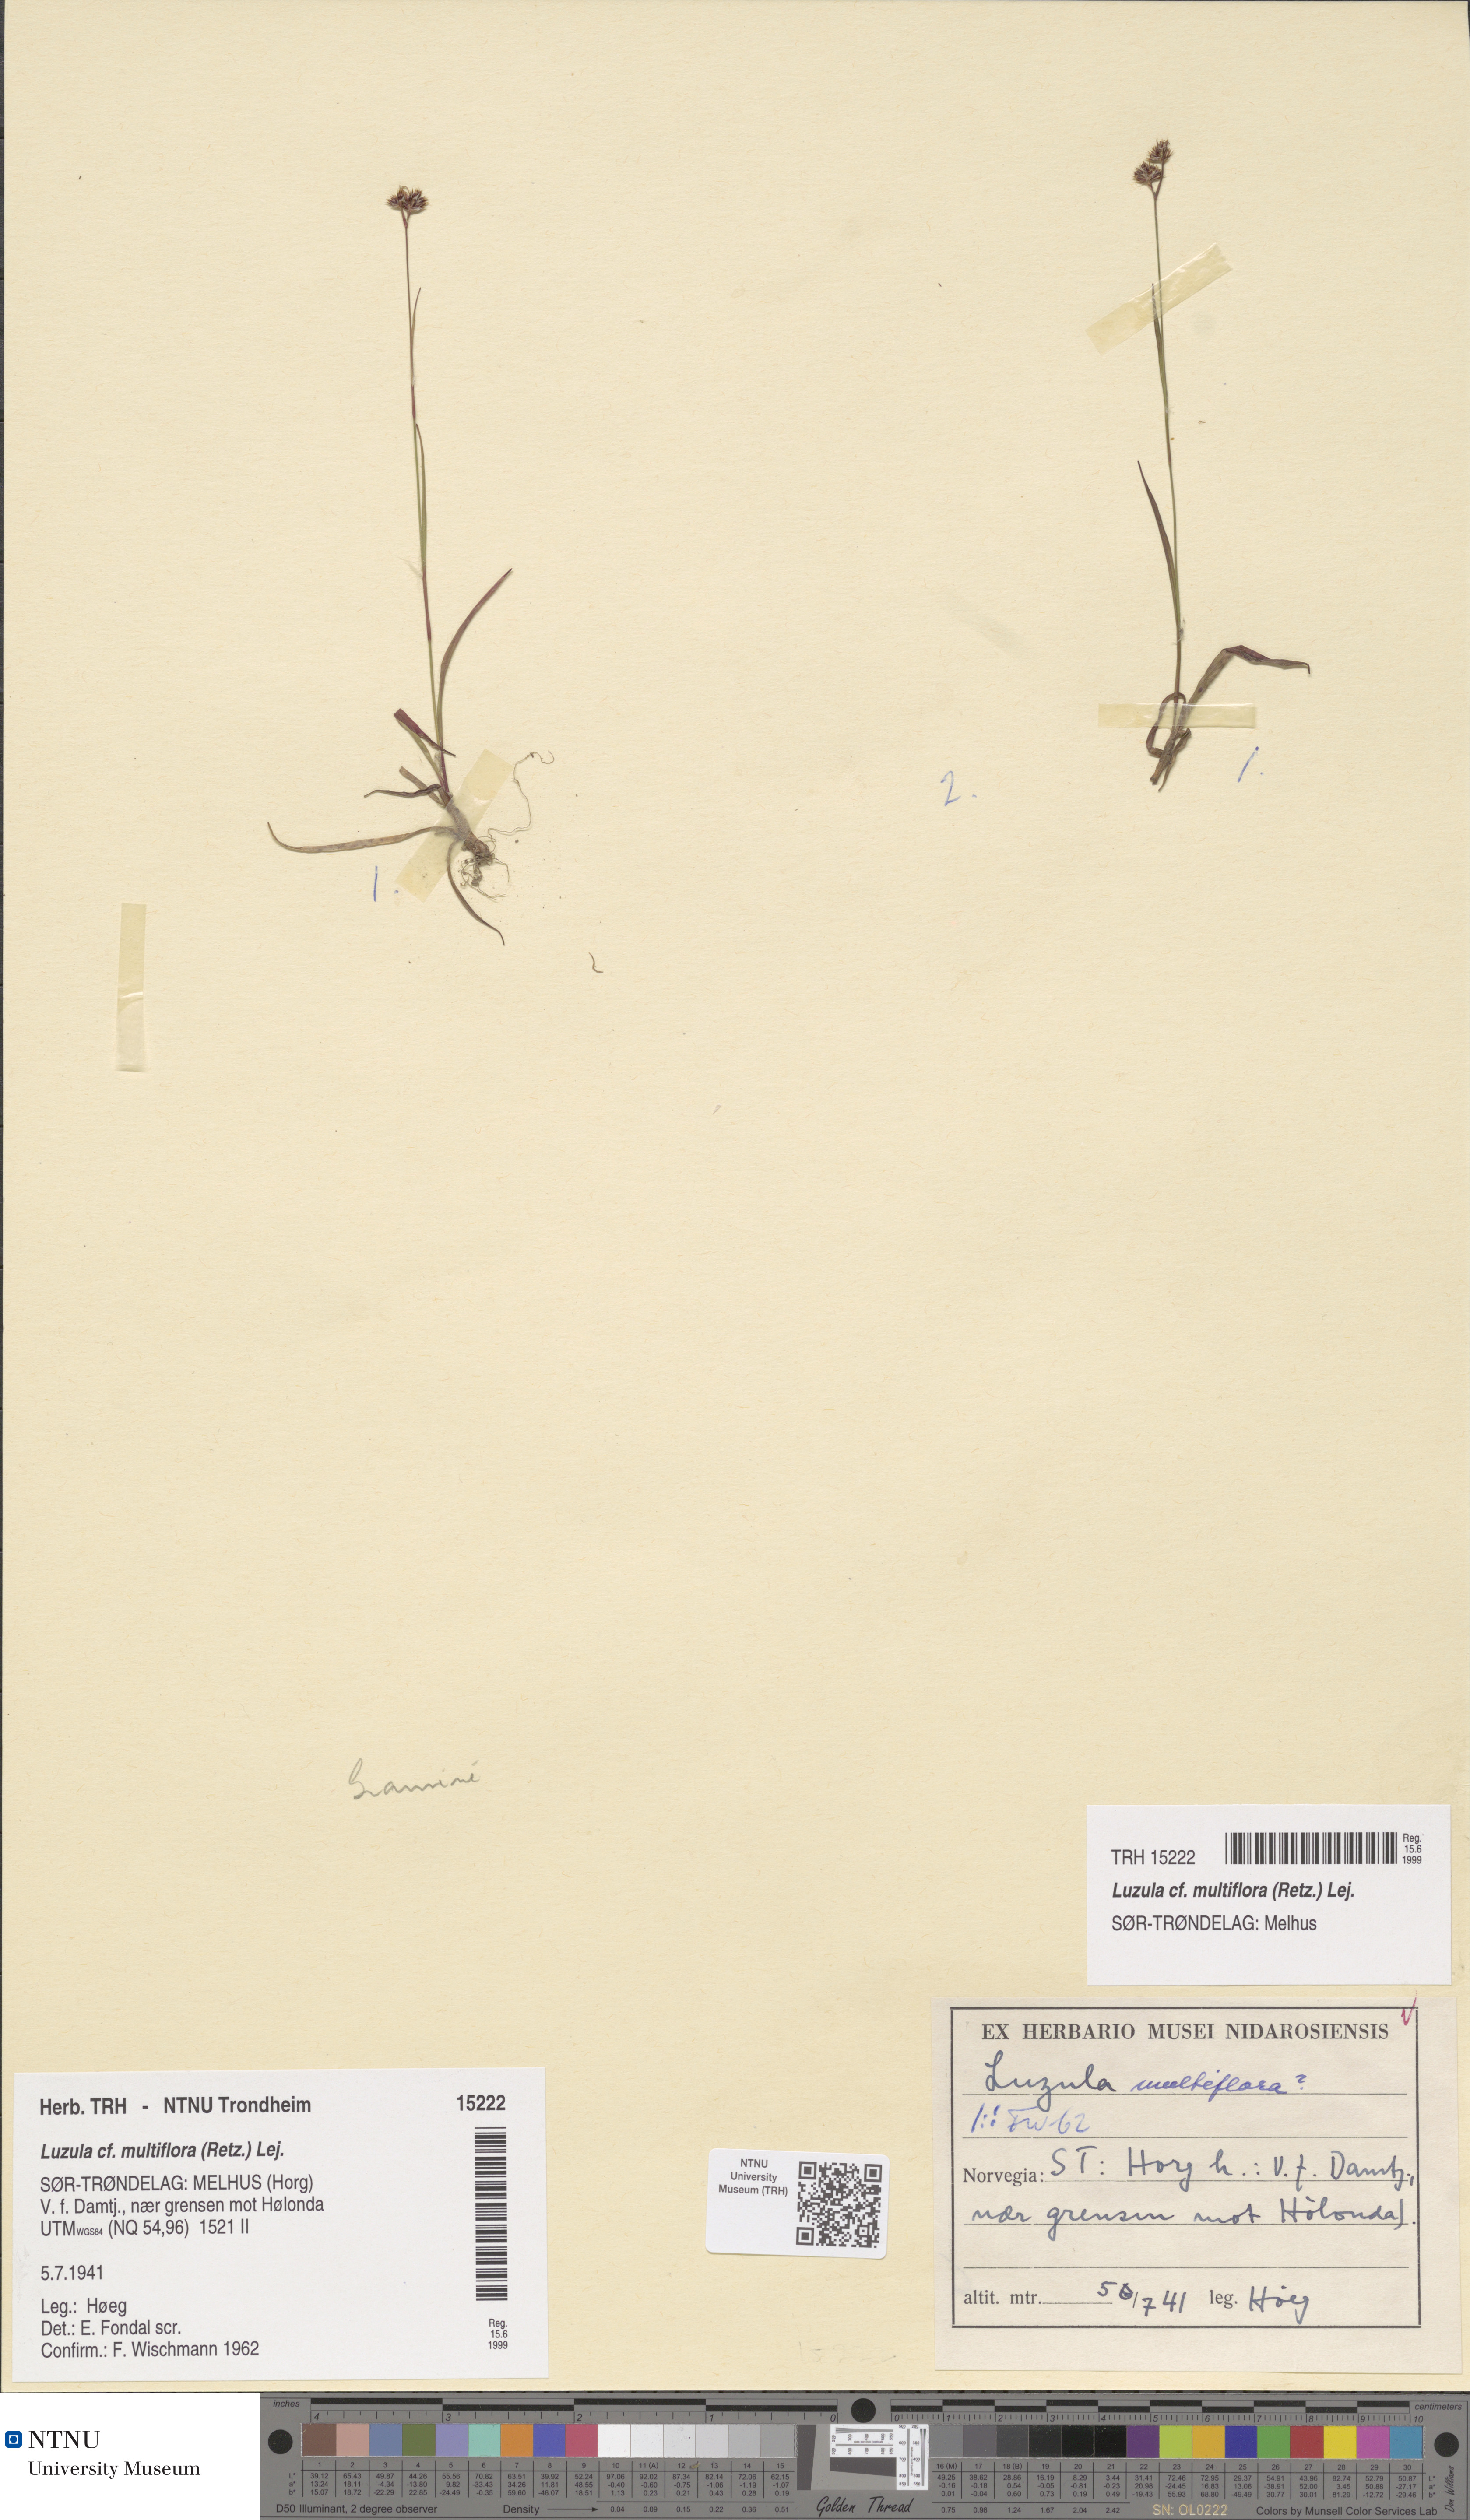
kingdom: Plantae
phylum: Tracheophyta
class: Liliopsida
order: Poales
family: Juncaceae
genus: Luzula
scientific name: Luzula multiflora
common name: Heath wood-rush
